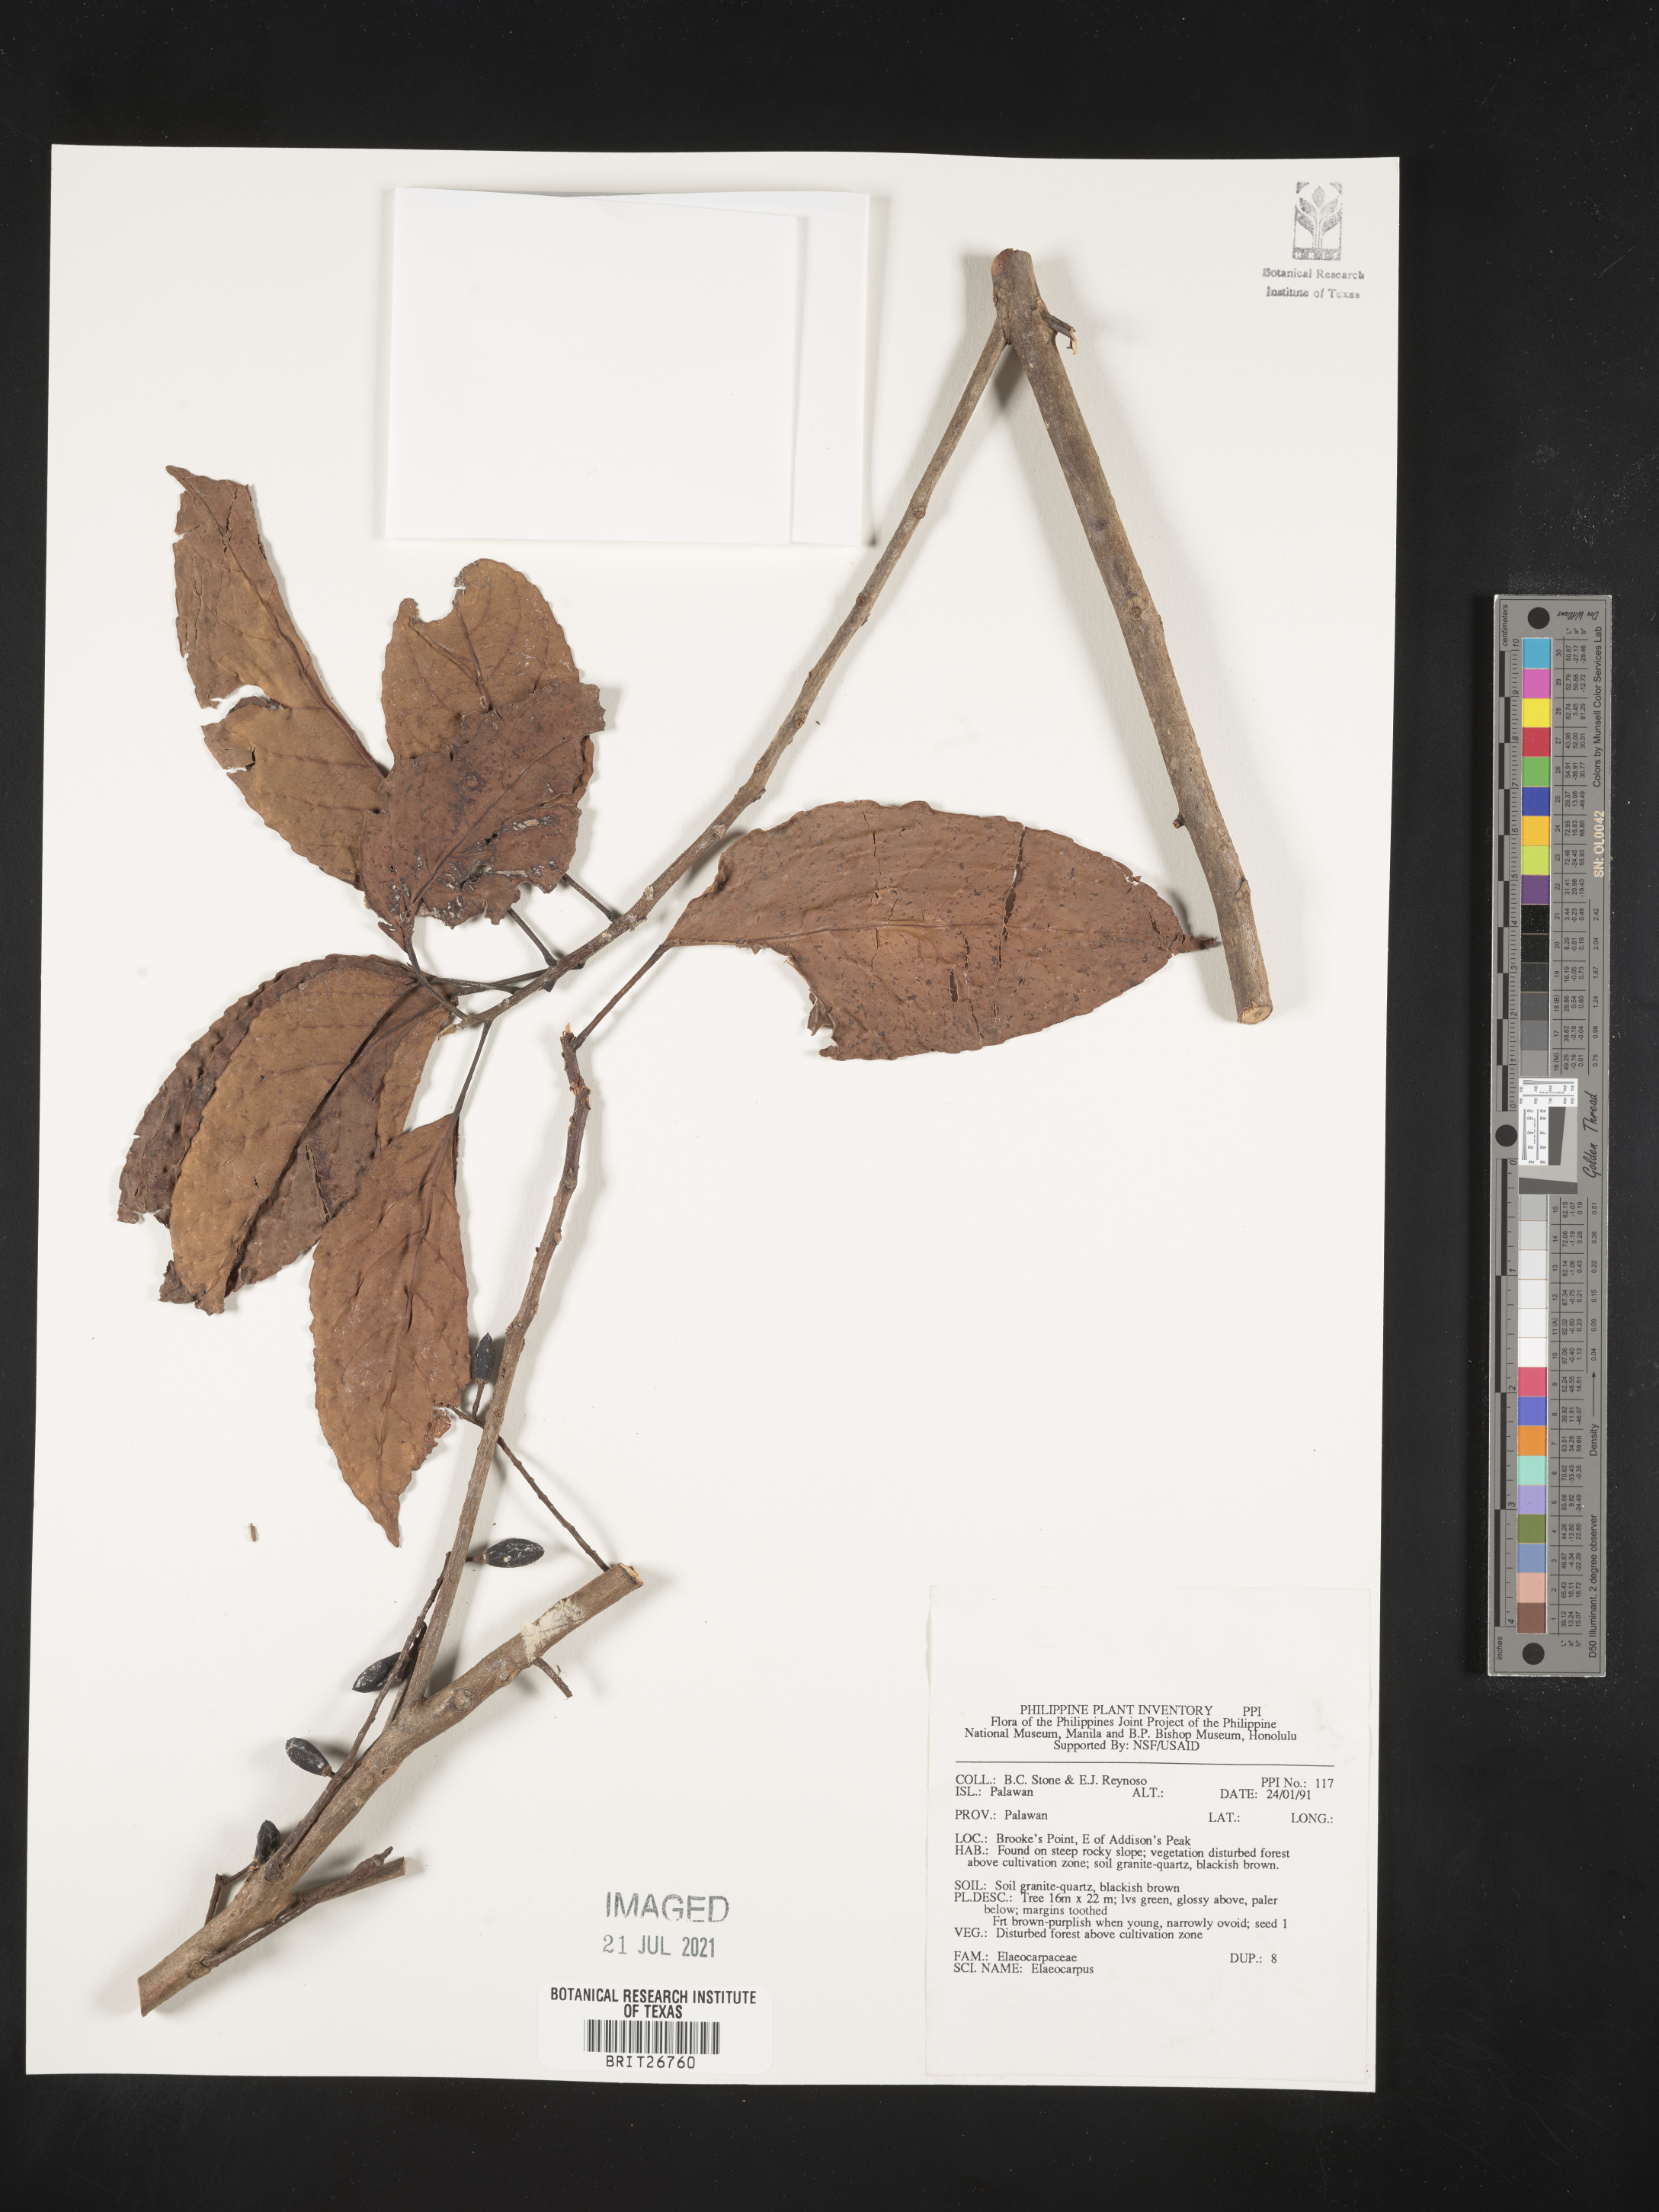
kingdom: Plantae
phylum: Tracheophyta
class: Magnoliopsida
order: Oxalidales
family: Elaeocarpaceae
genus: Elaeocarpus
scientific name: Elaeocarpus
